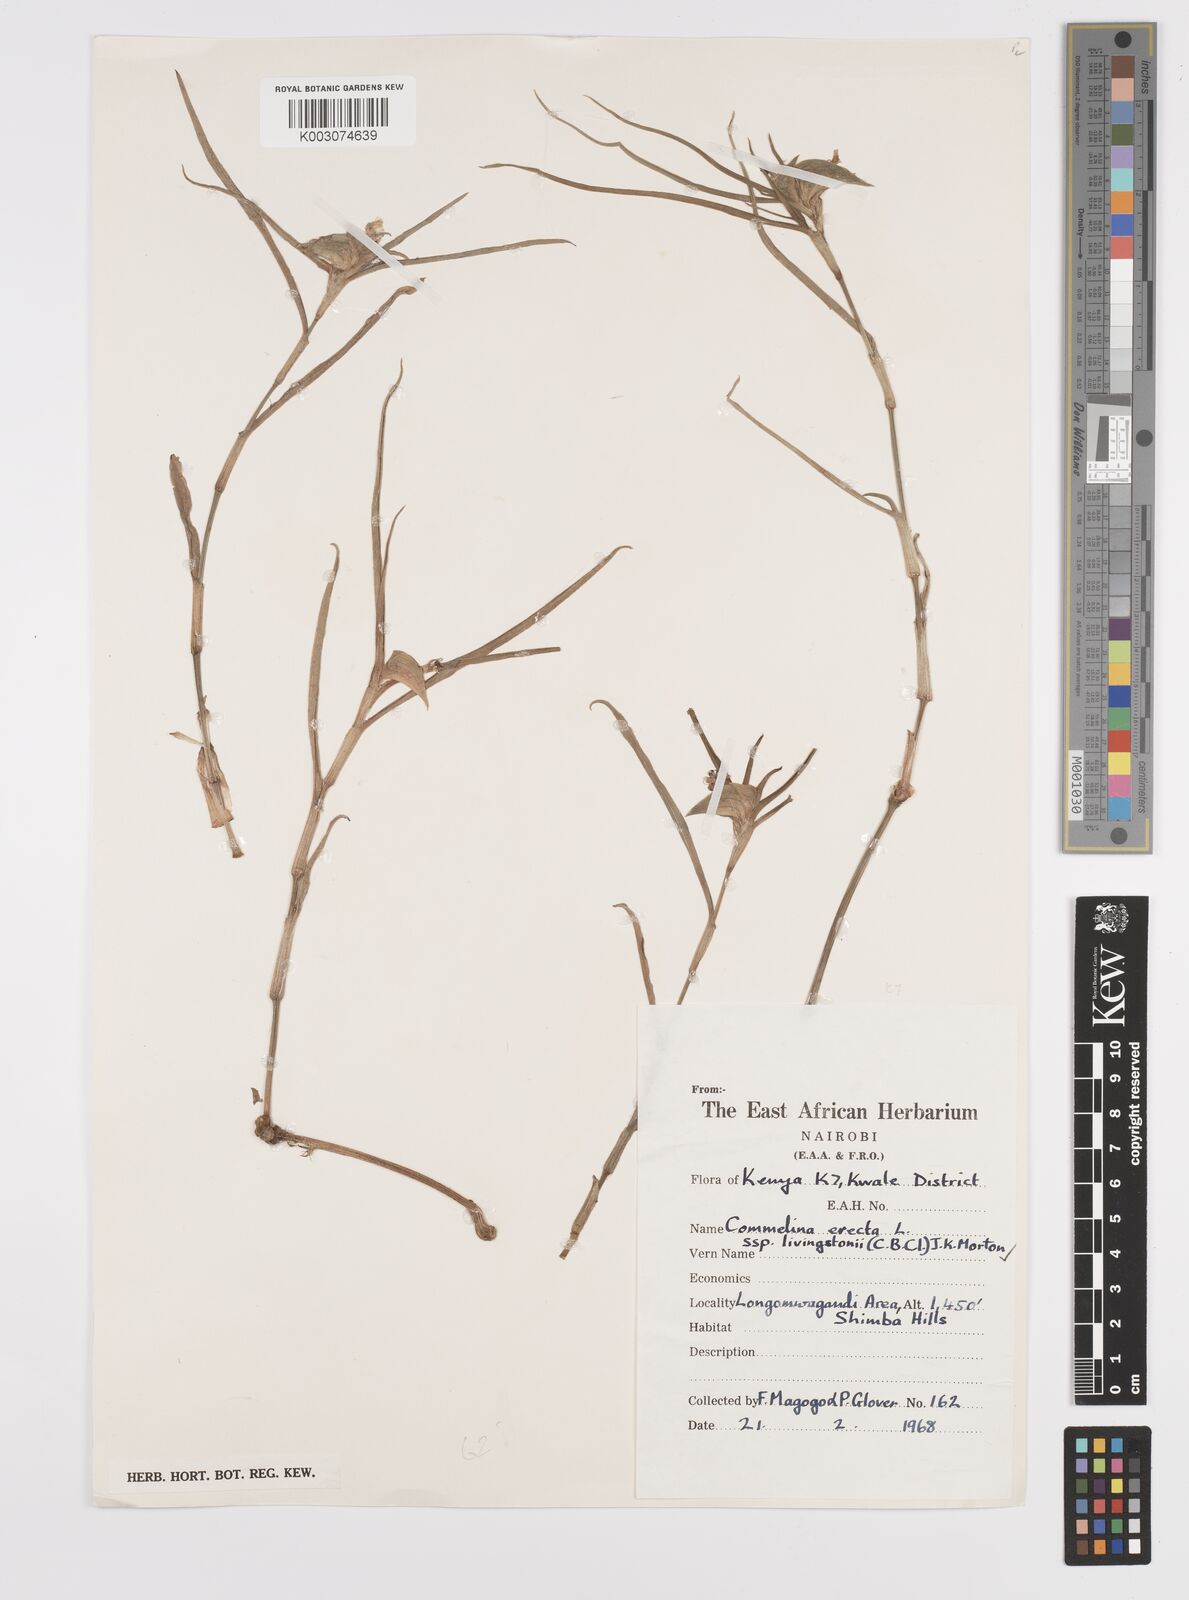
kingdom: Plantae
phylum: Tracheophyta
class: Liliopsida
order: Commelinales
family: Commelinaceae
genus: Commelina
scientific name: Commelina erecta
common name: Blousel blommetjie
